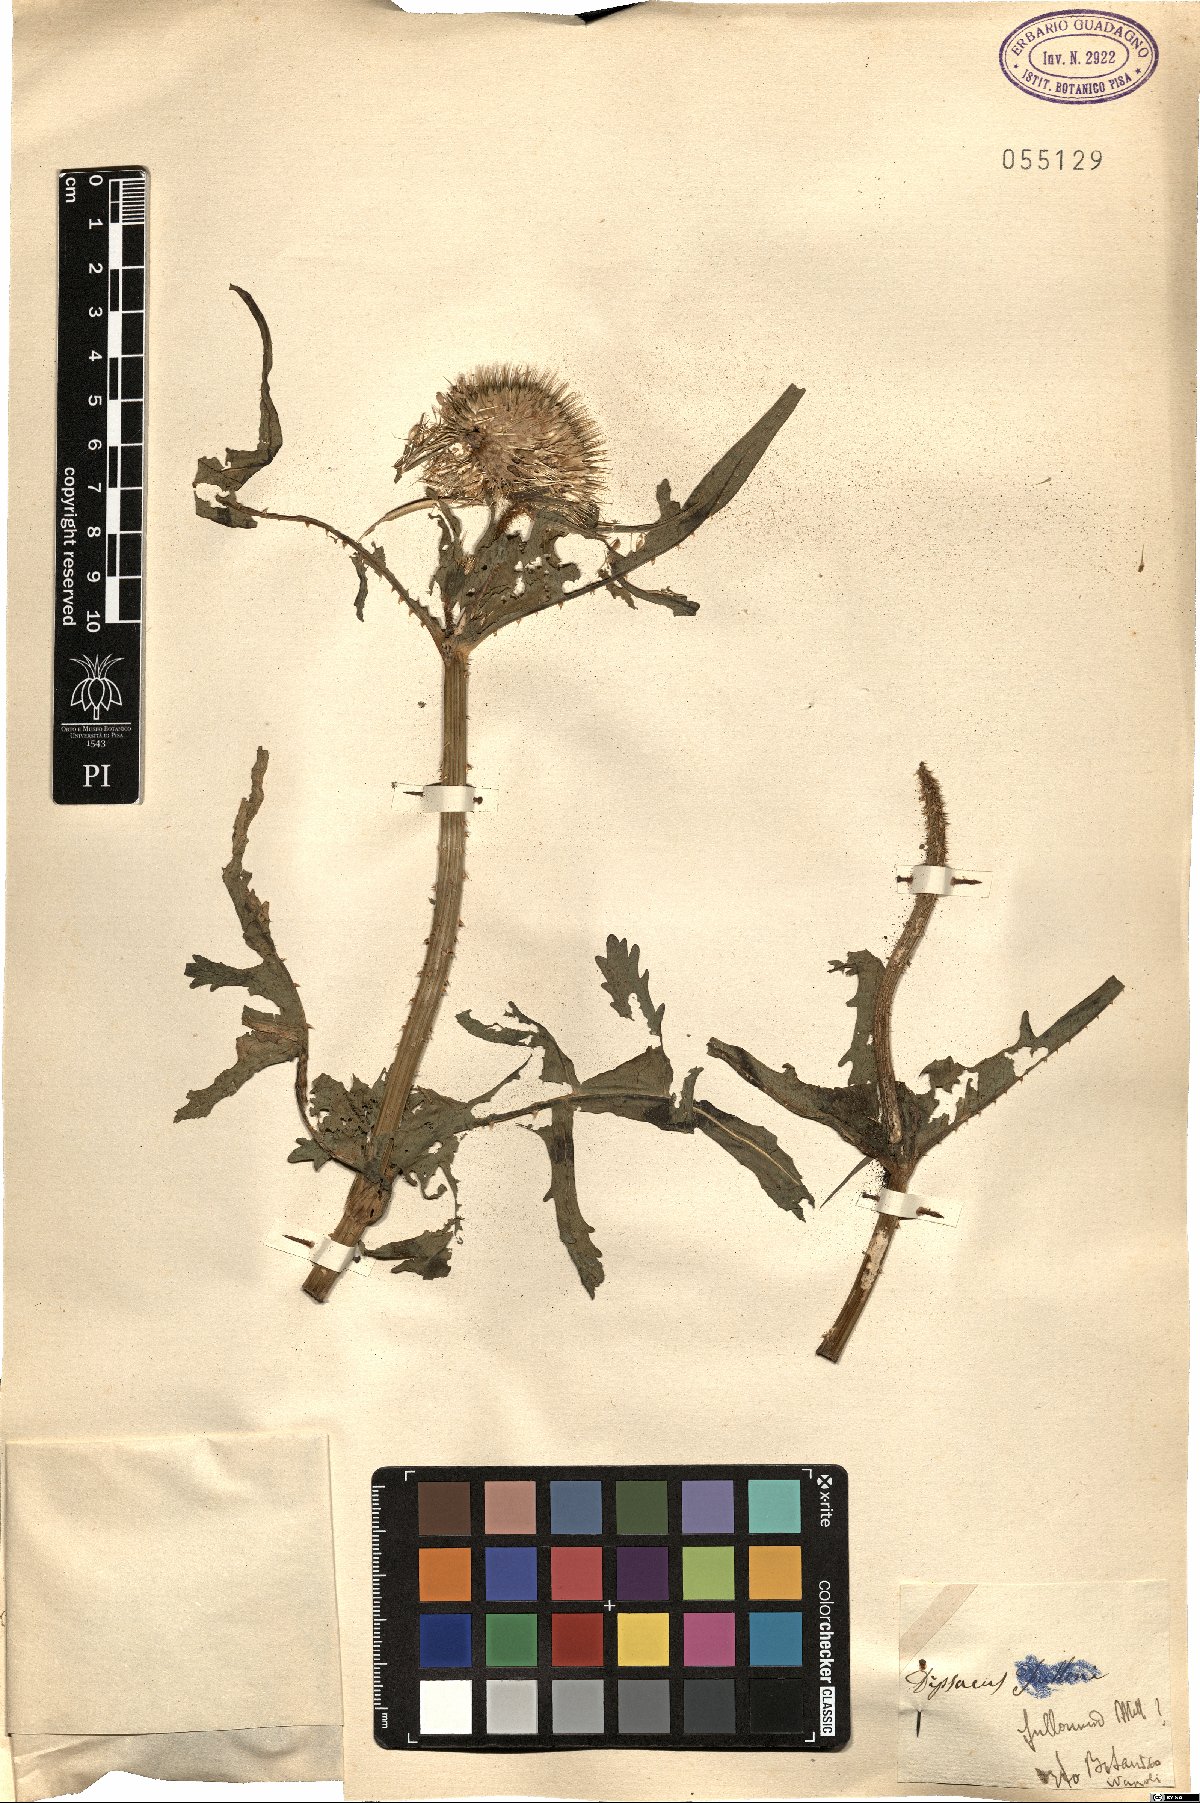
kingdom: Plantae
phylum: Tracheophyta
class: Magnoliopsida
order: Dipsacales
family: Caprifoliaceae
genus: Dipsacus
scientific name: Dipsacus fullonum
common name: Teasel
